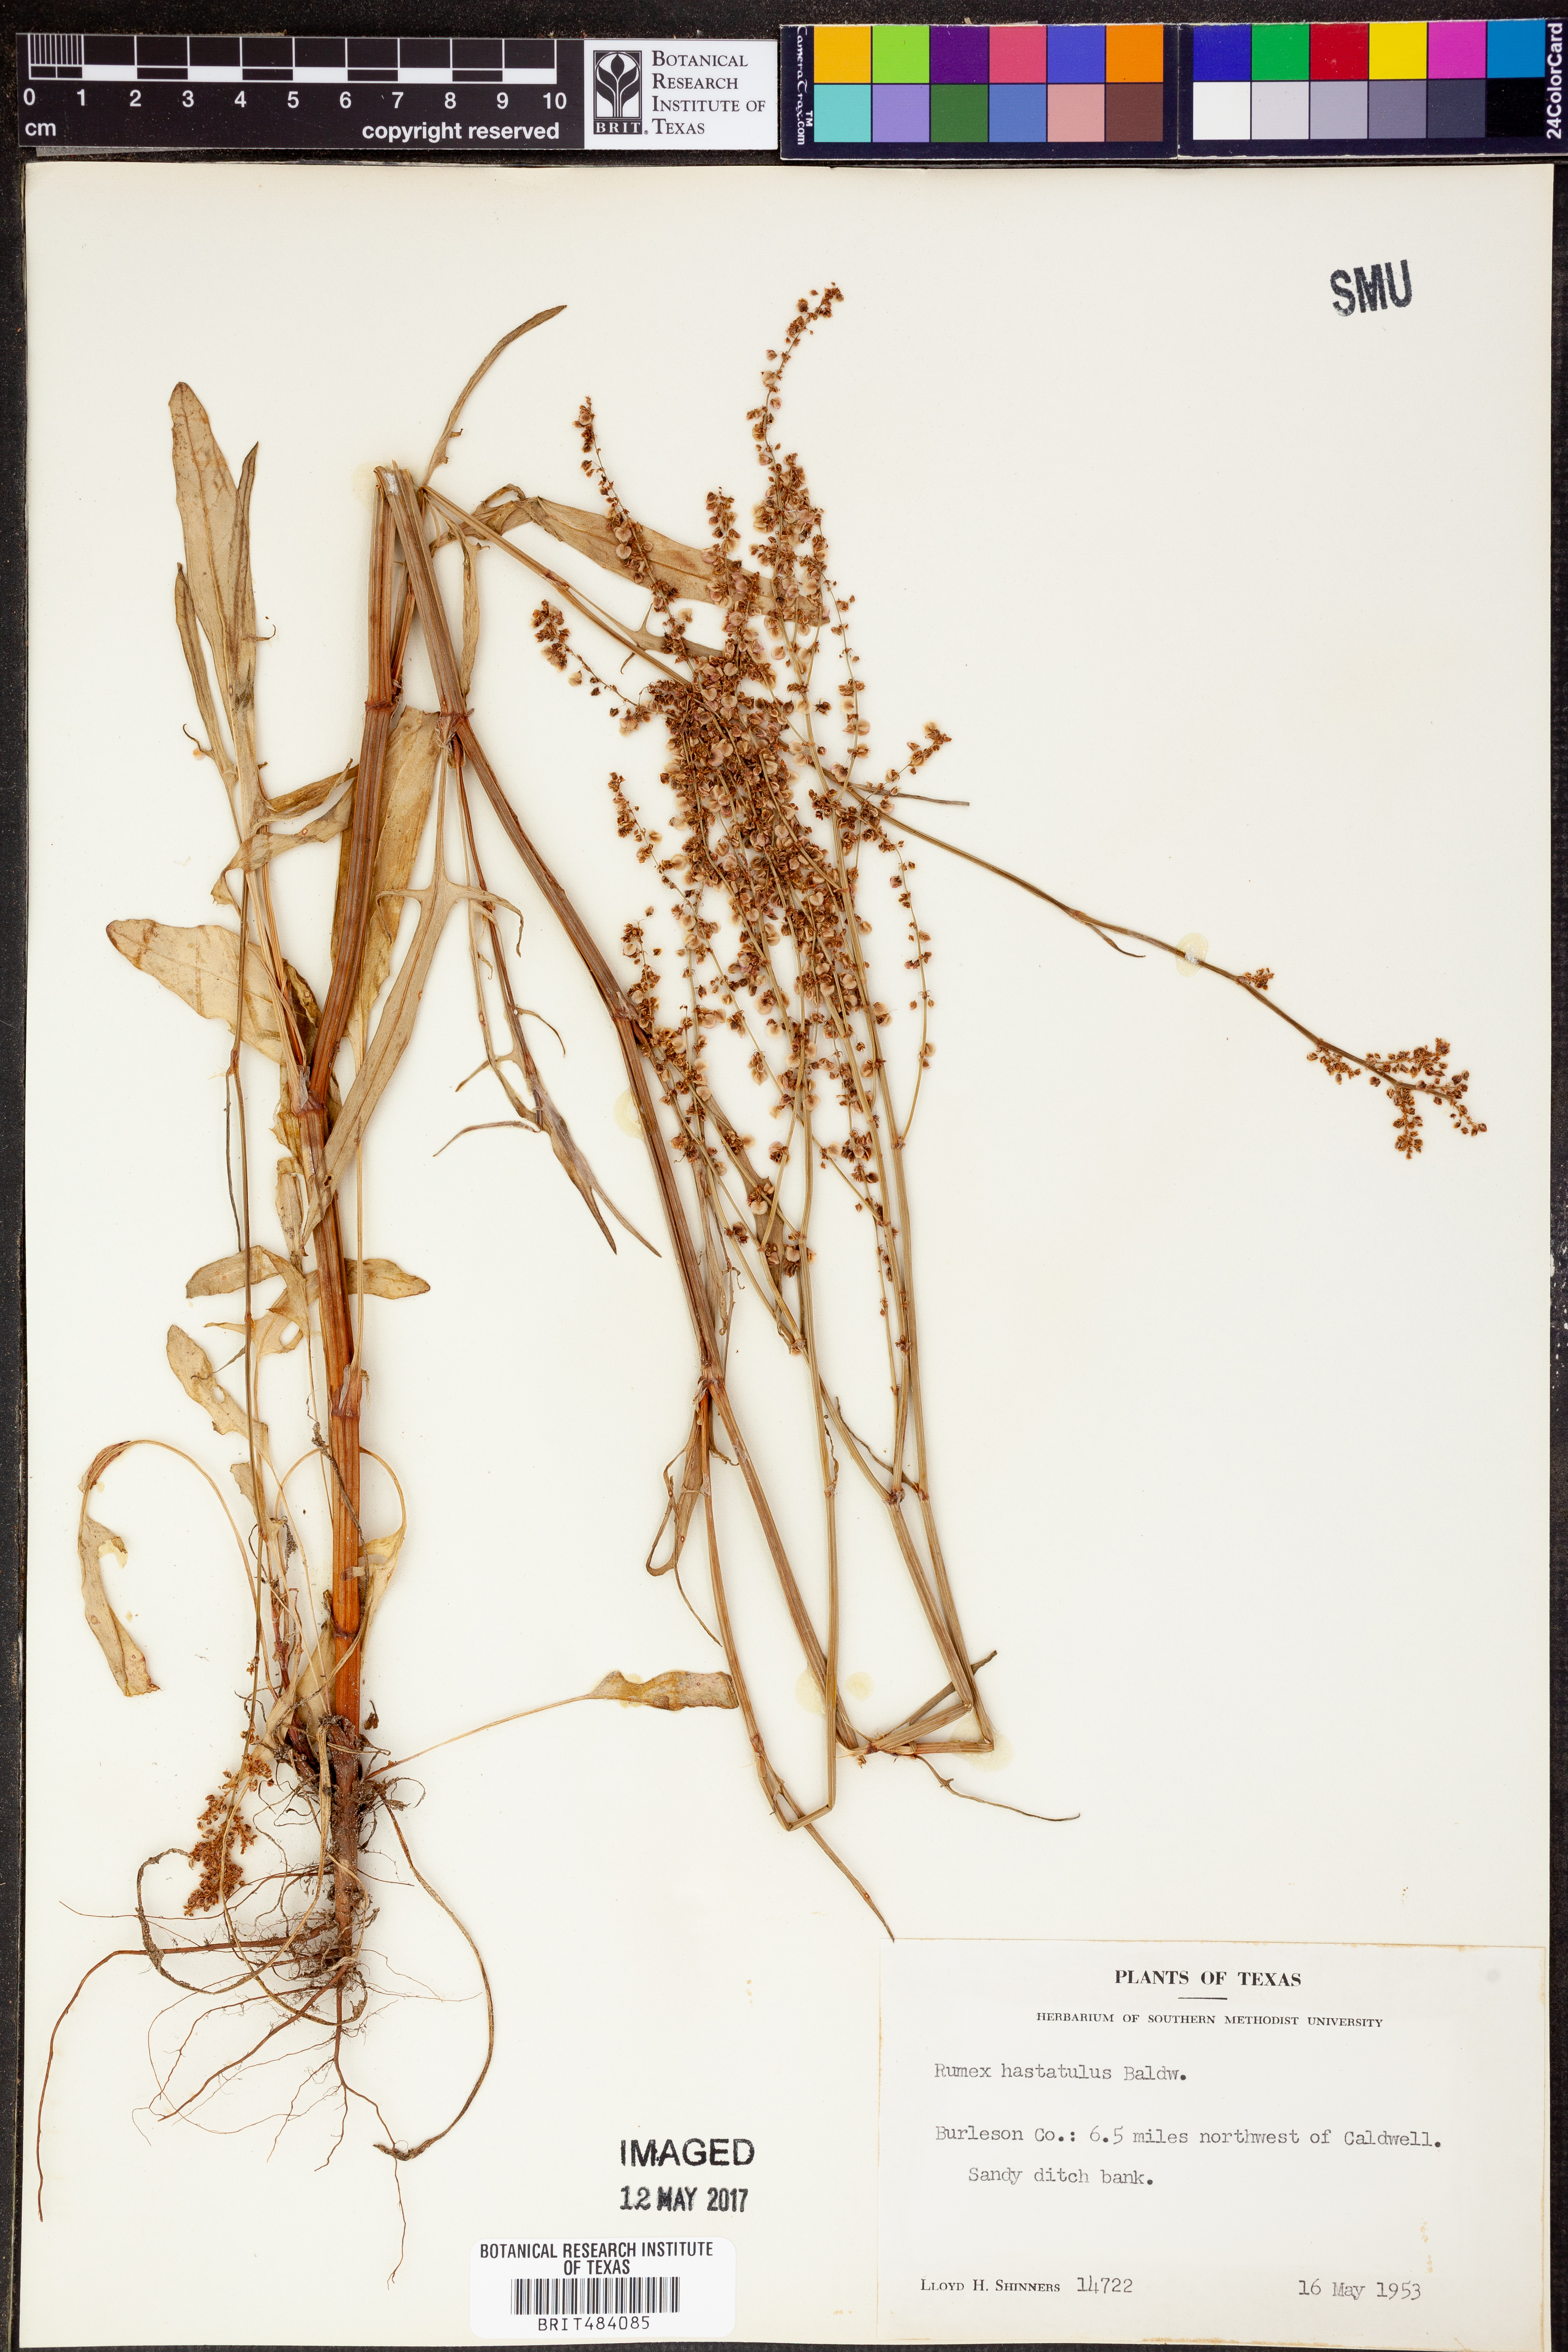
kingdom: Plantae
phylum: Tracheophyta
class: Magnoliopsida
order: Caryophyllales
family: Polygonaceae
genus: Rumex
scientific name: Rumex hastatulus
